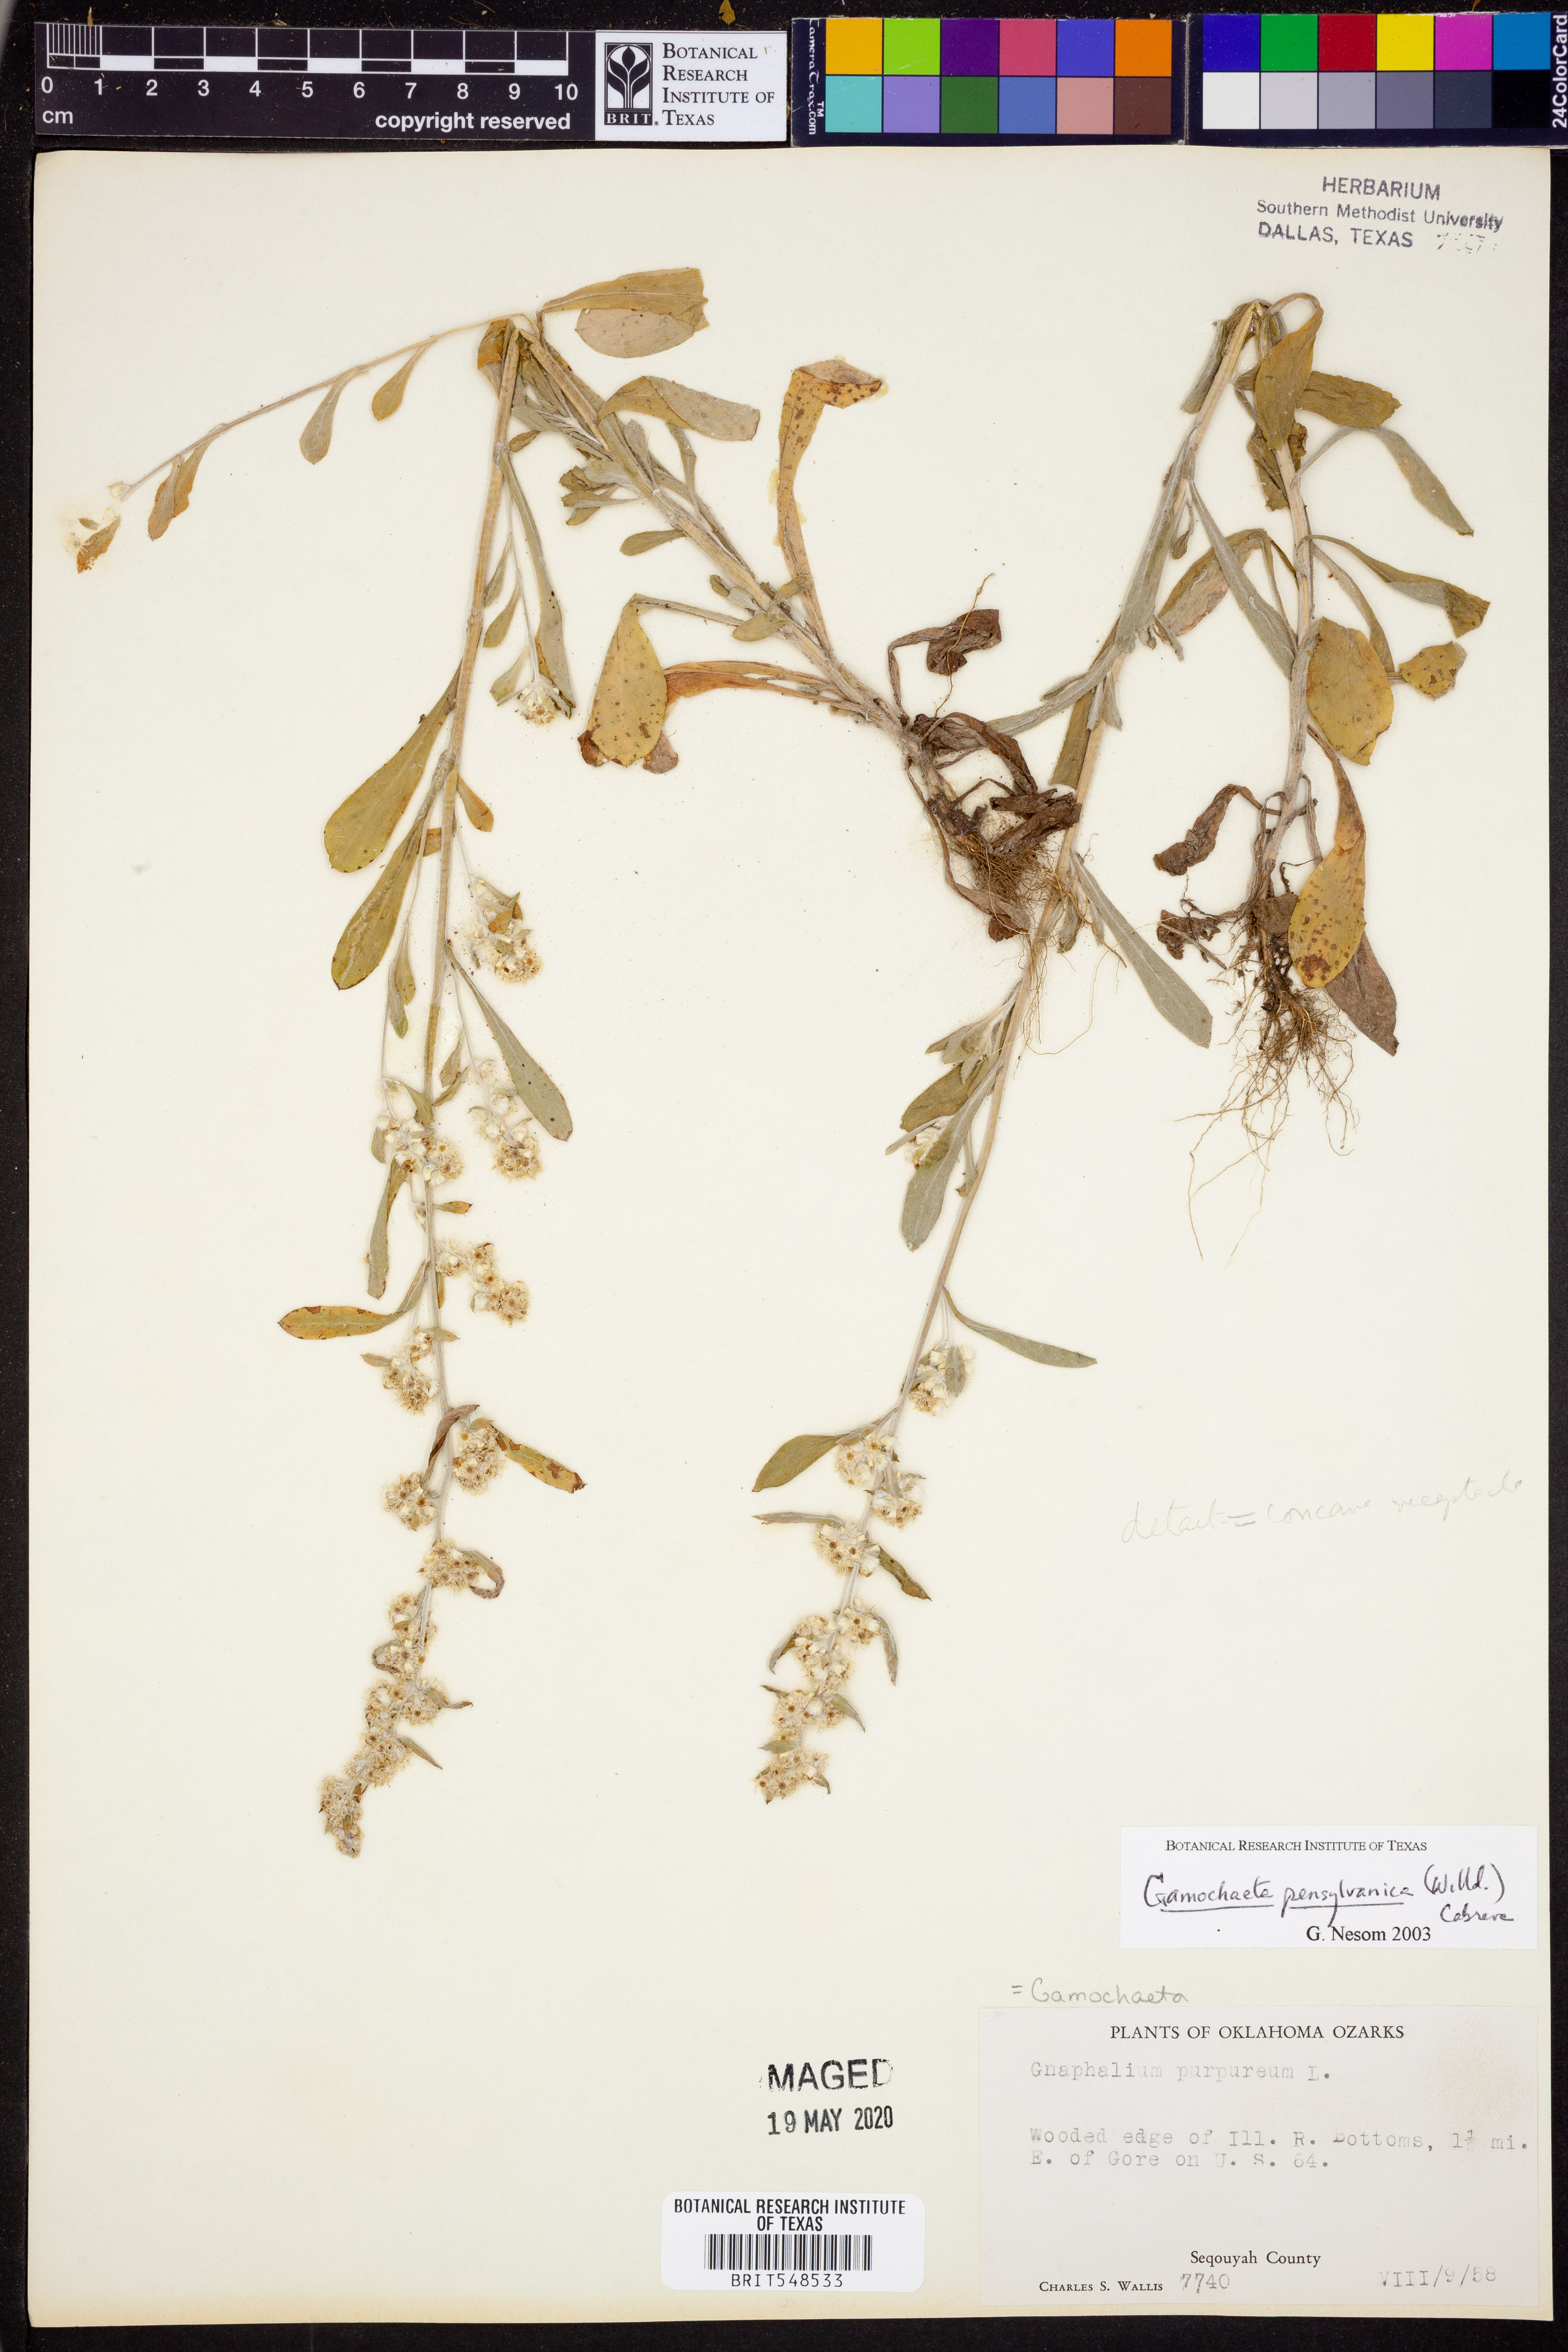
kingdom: Plantae
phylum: Tracheophyta
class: Magnoliopsida
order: Asterales
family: Asteraceae
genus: Gamochaeta
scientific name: Gamochaeta pensylvanica
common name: Pennsylvania everlasting
